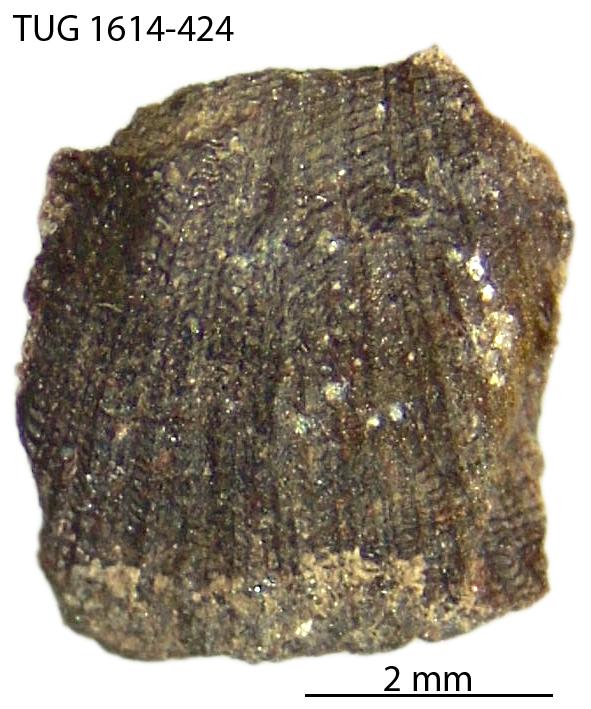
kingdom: Animalia
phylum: Mollusca
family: Scenellidae
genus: Scenella
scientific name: Scenella
